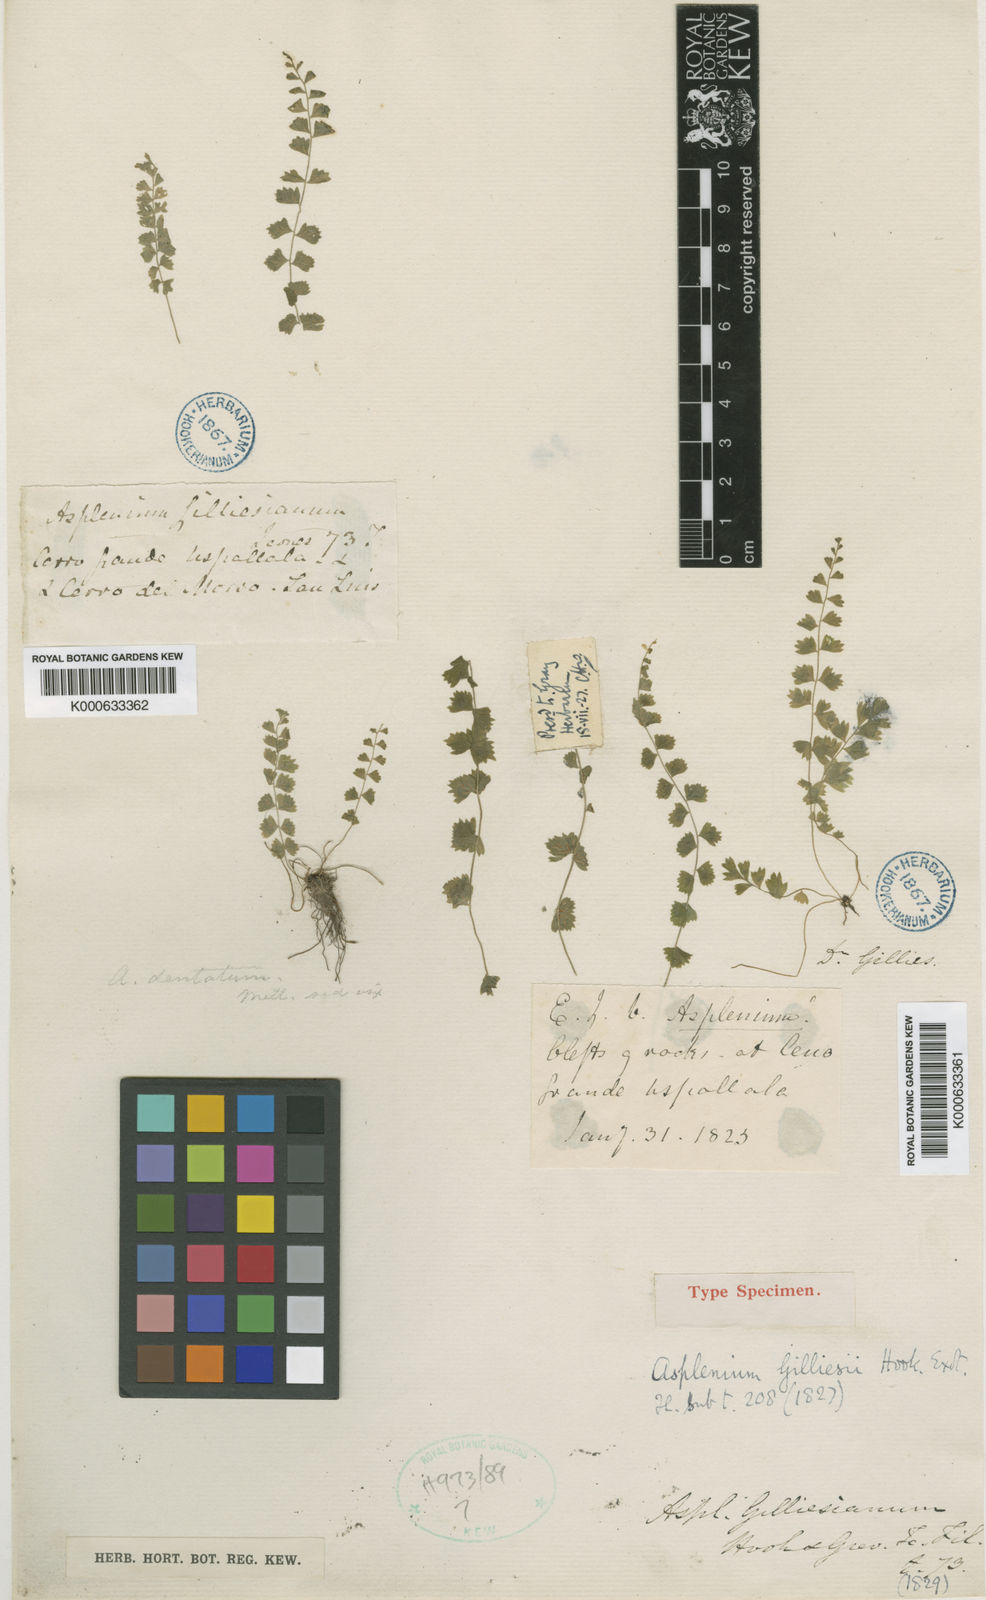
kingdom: Plantae
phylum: Tracheophyta
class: Polypodiopsida
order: Polypodiales
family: Aspleniaceae
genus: Asplenium
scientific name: Asplenium gilliesii
